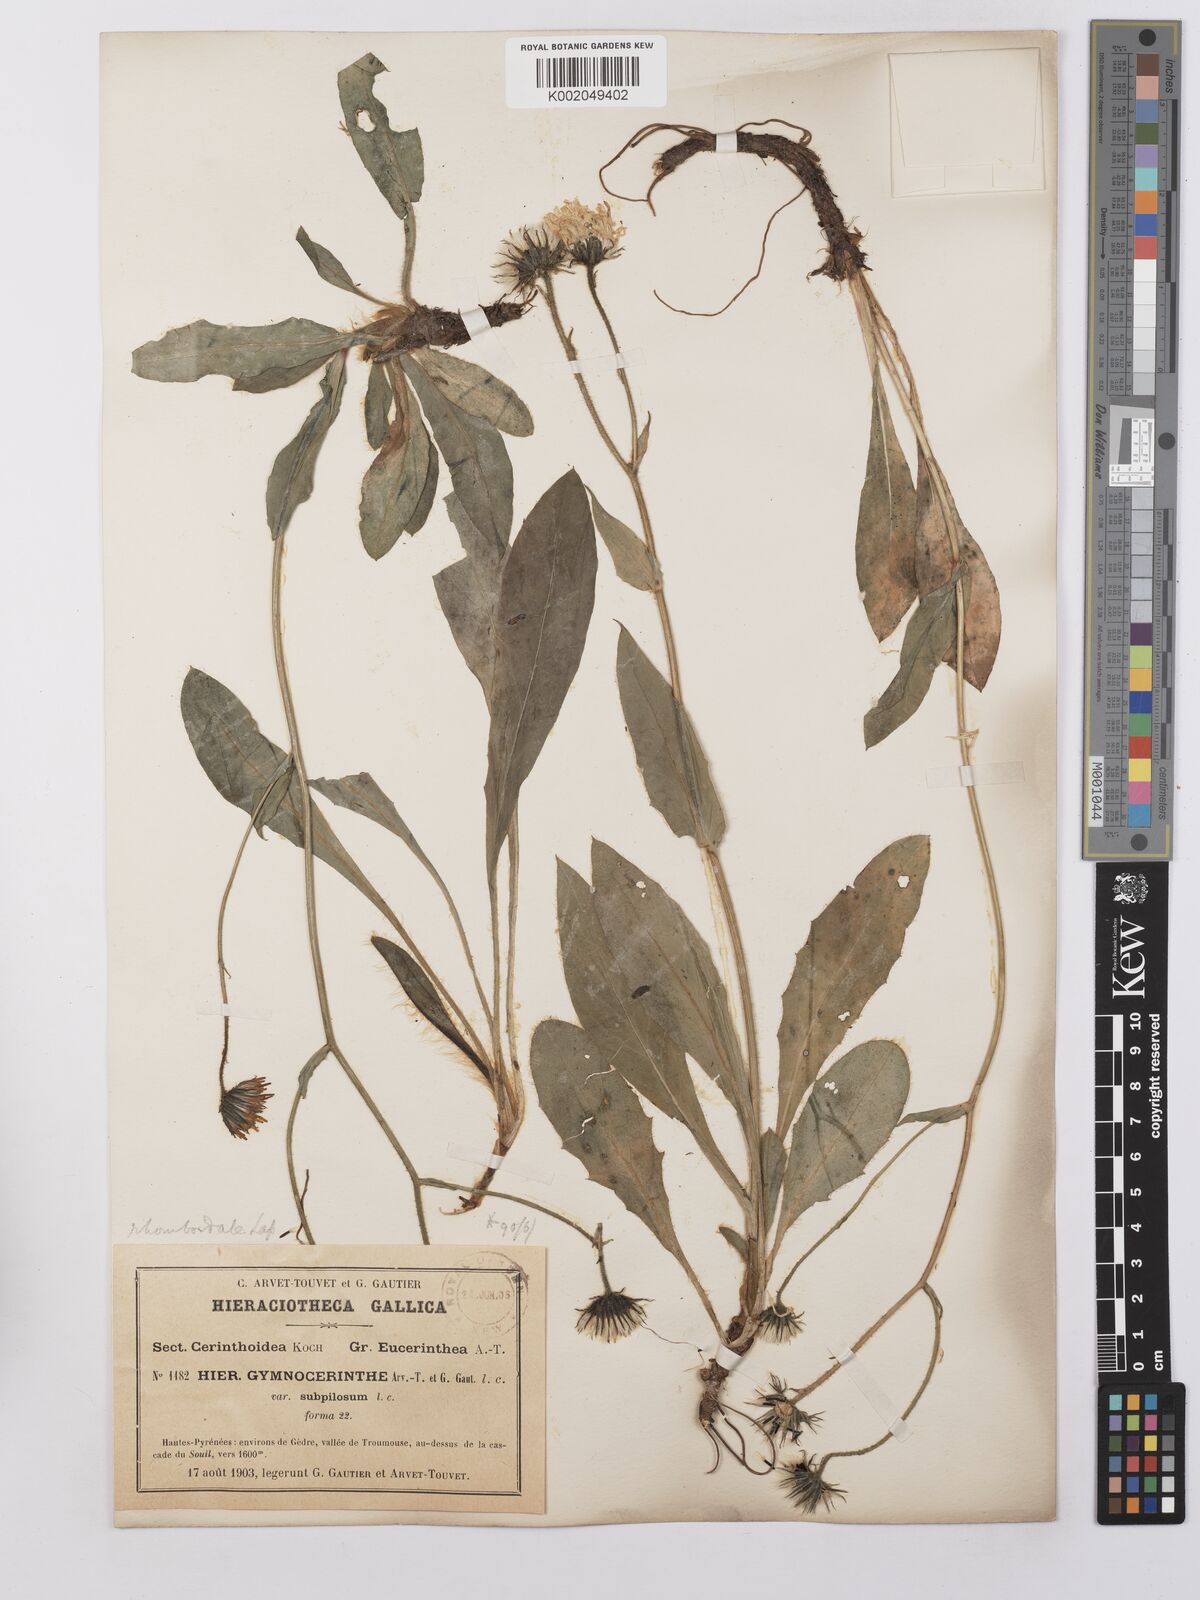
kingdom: Plantae
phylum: Tracheophyta
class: Magnoliopsida
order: Asterales
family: Asteraceae
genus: Hieracium
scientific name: Hieracium cerinthoides
